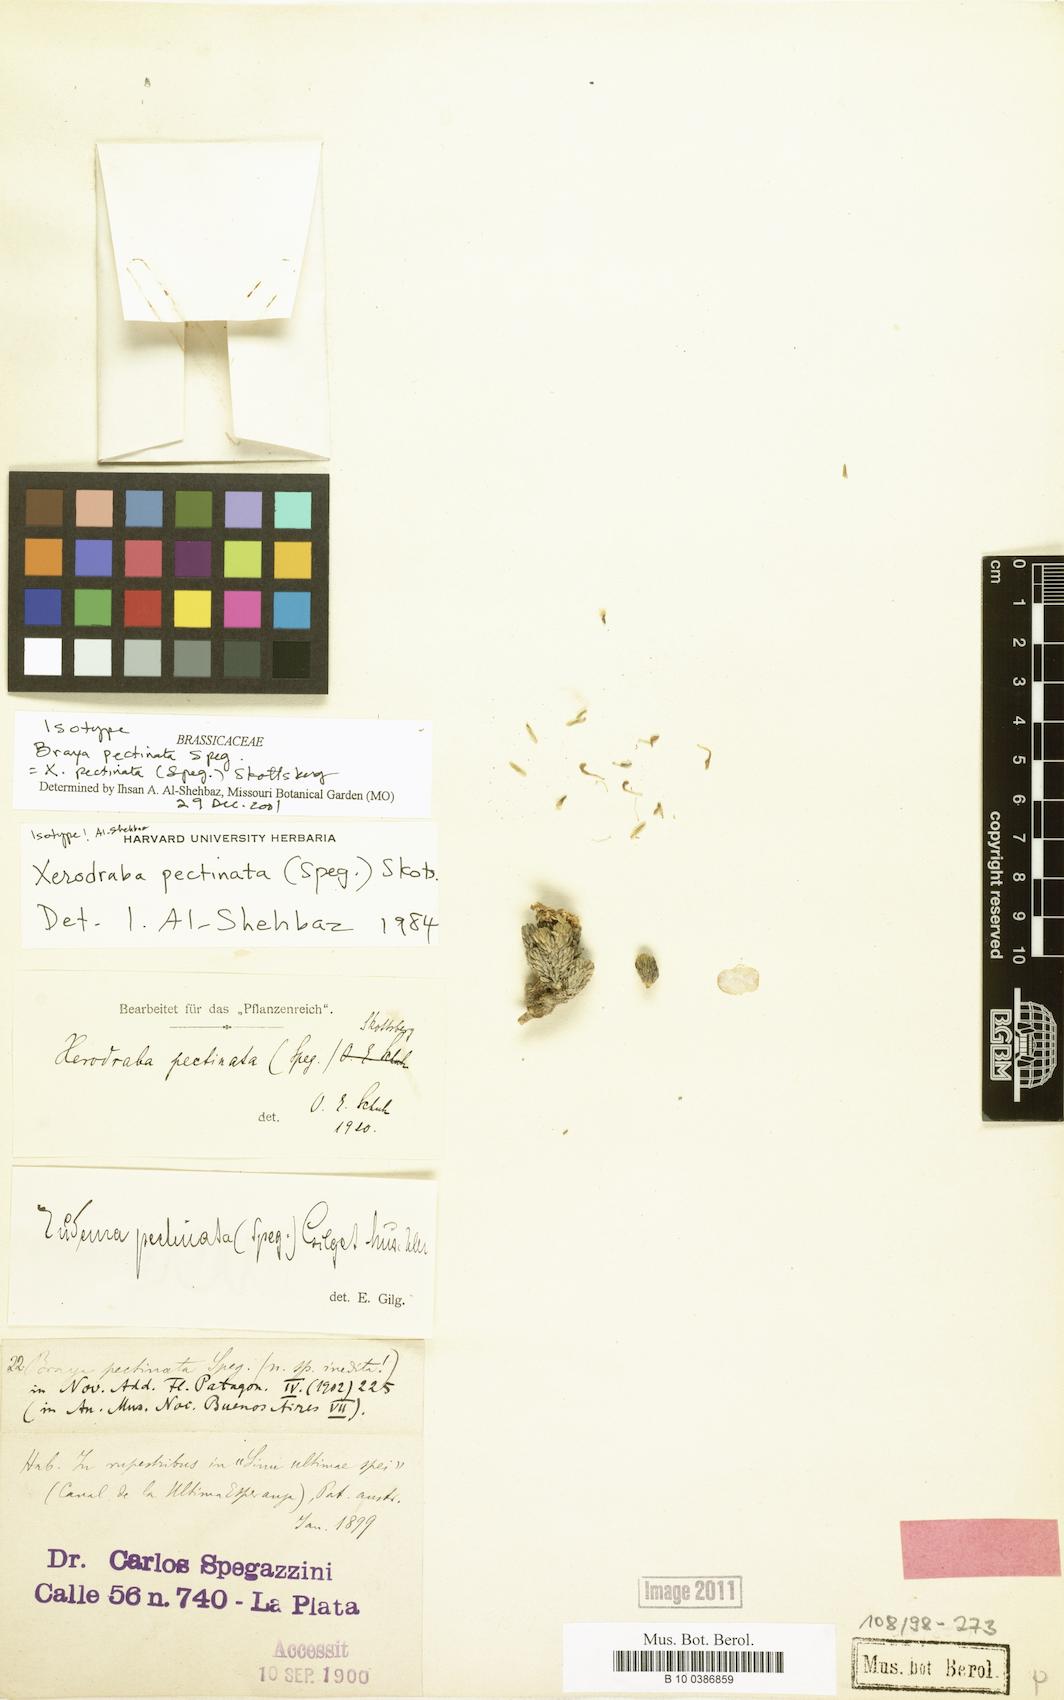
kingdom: Plantae
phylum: Tracheophyta
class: Magnoliopsida
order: Brassicales
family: Brassicaceae
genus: Xerodraba
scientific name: Xerodraba lycopodioides
